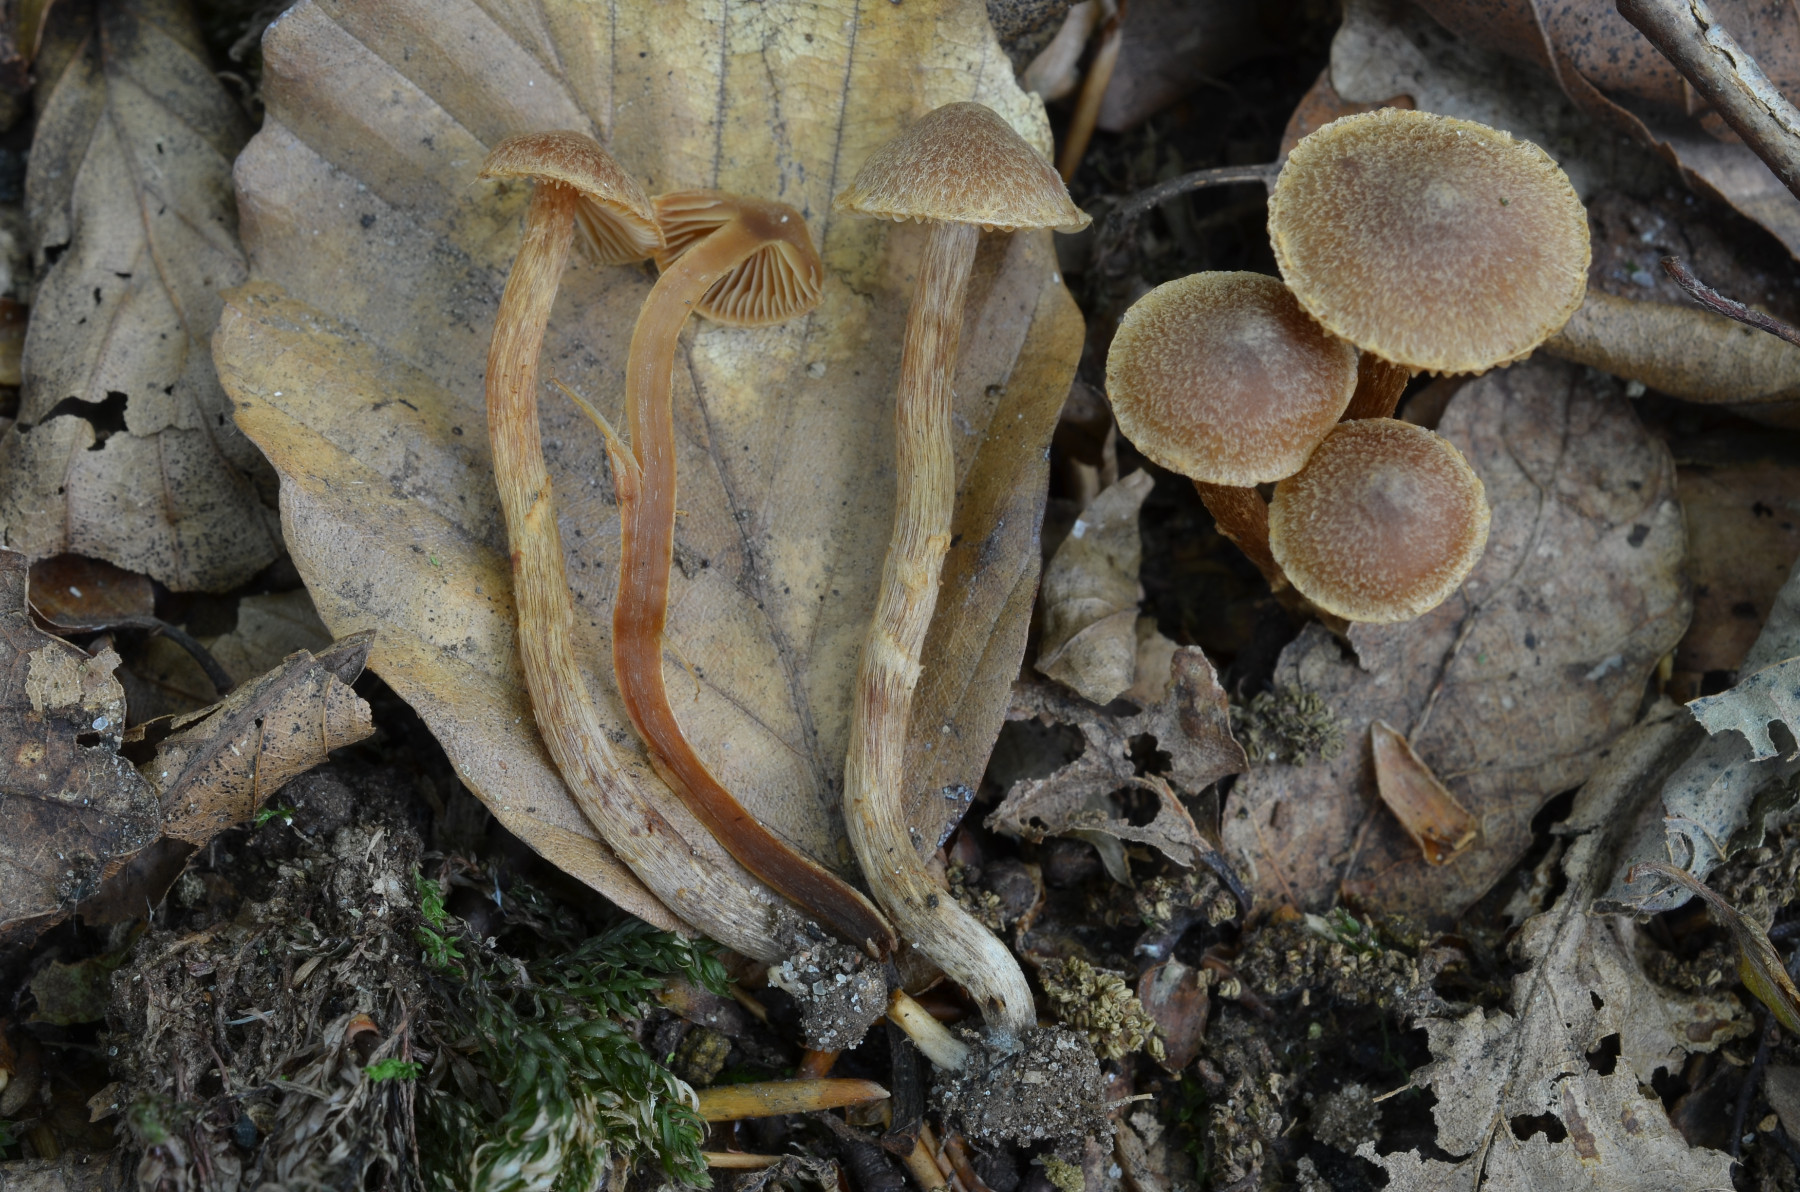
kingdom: Fungi
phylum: Basidiomycota
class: Agaricomycetes
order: Agaricales
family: Cortinariaceae
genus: Cortinarius
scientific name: Cortinarius castaneopallidus
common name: bronzetrævlet slørhat
